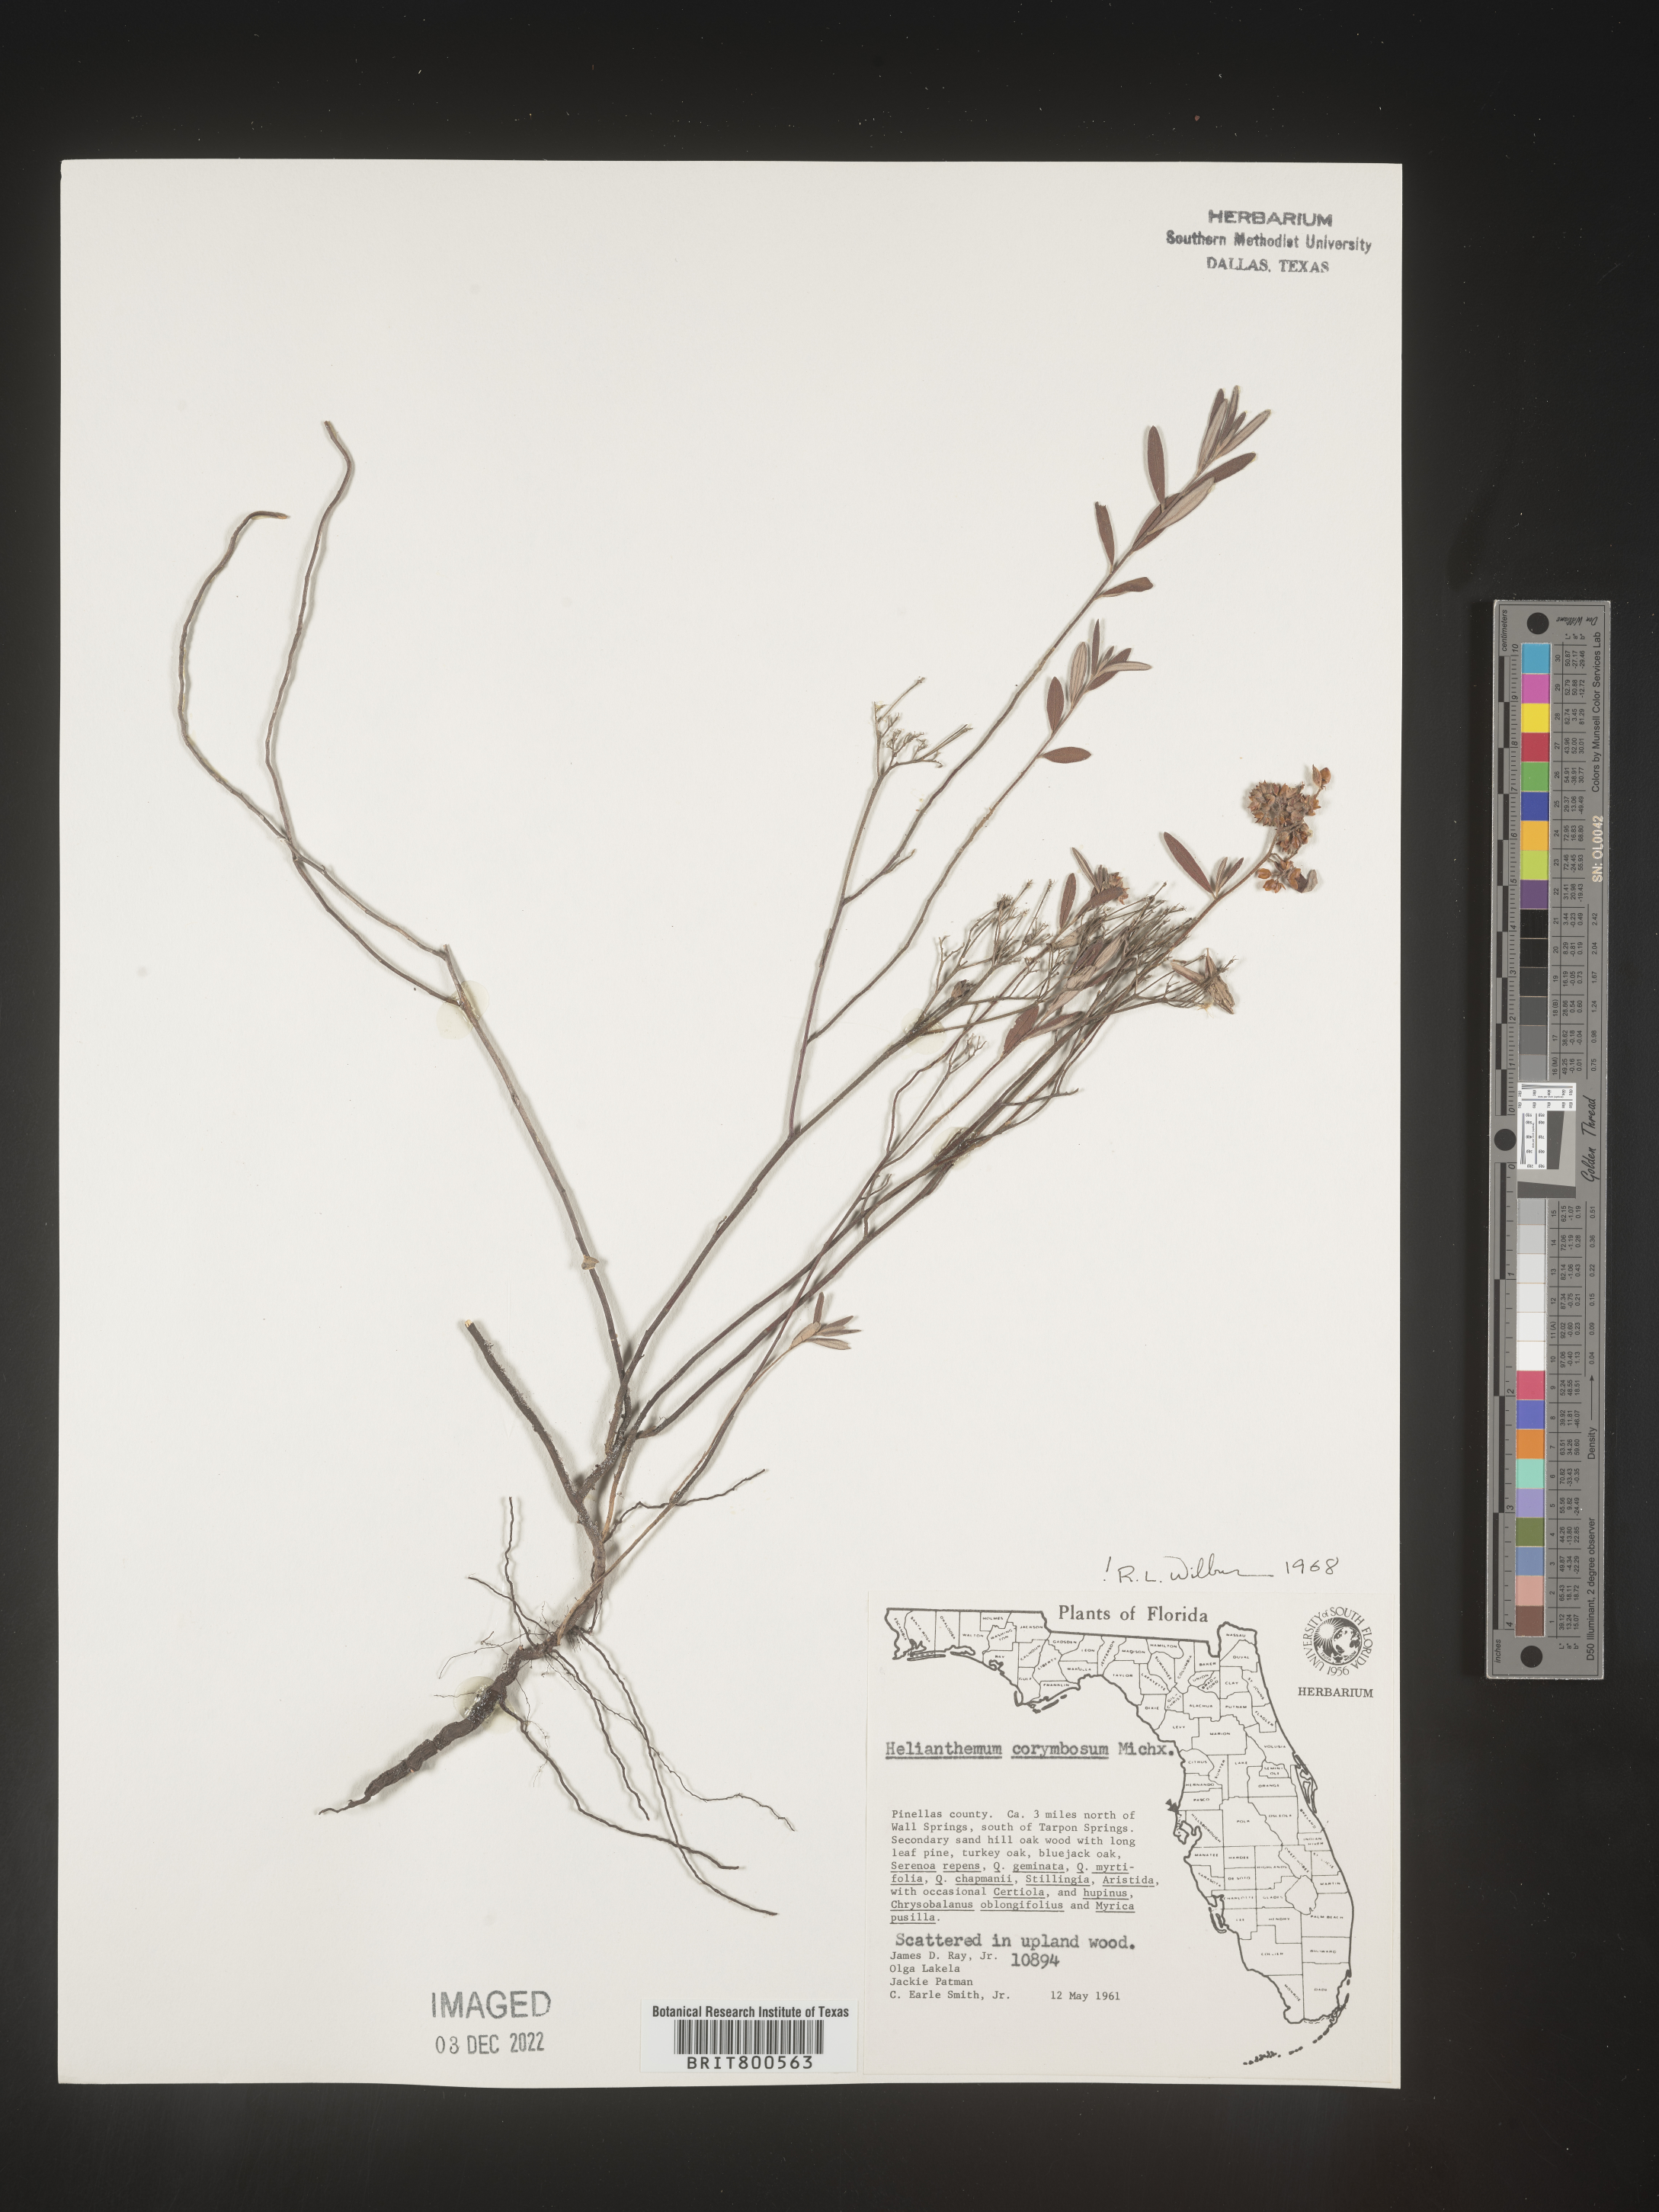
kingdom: Plantae
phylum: Tracheophyta
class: Magnoliopsida
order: Malvales
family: Cistaceae
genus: Crocanthemum
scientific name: Crocanthemum corymbosum
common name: Pinebarren sun-rose
